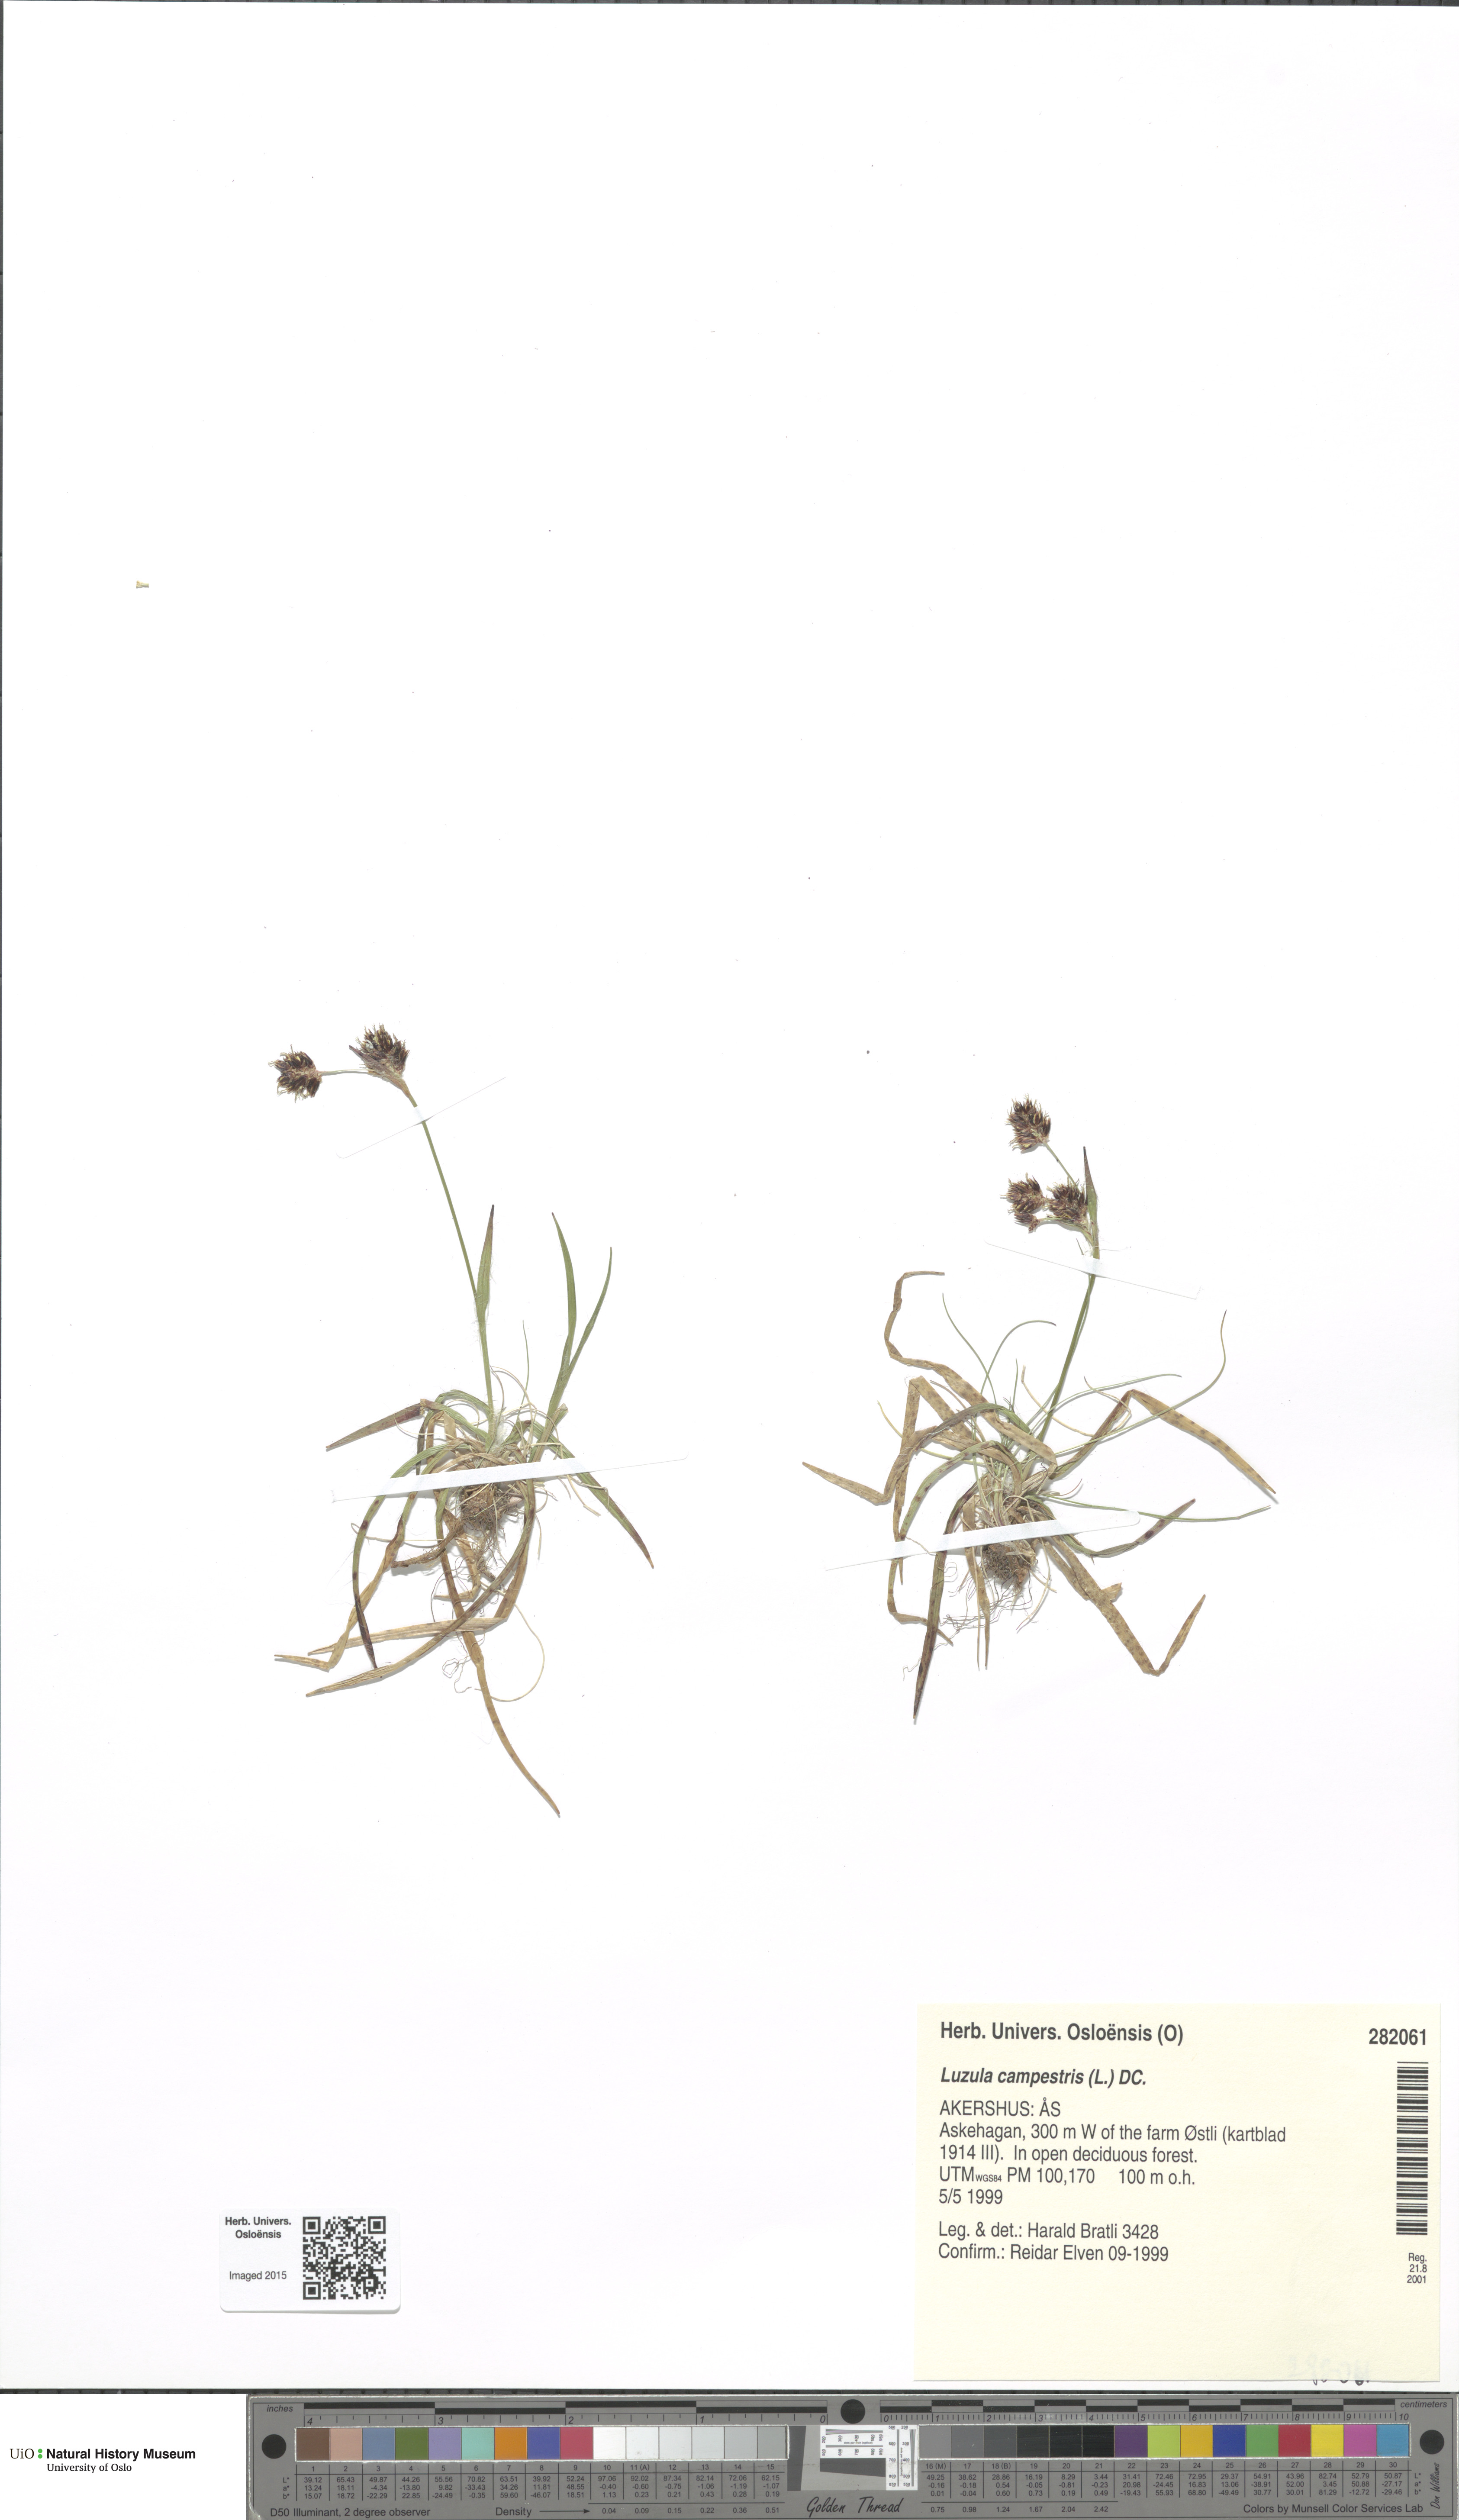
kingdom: Plantae
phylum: Tracheophyta
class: Liliopsida
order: Poales
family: Juncaceae
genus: Luzula
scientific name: Luzula campestris
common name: Field wood-rush
